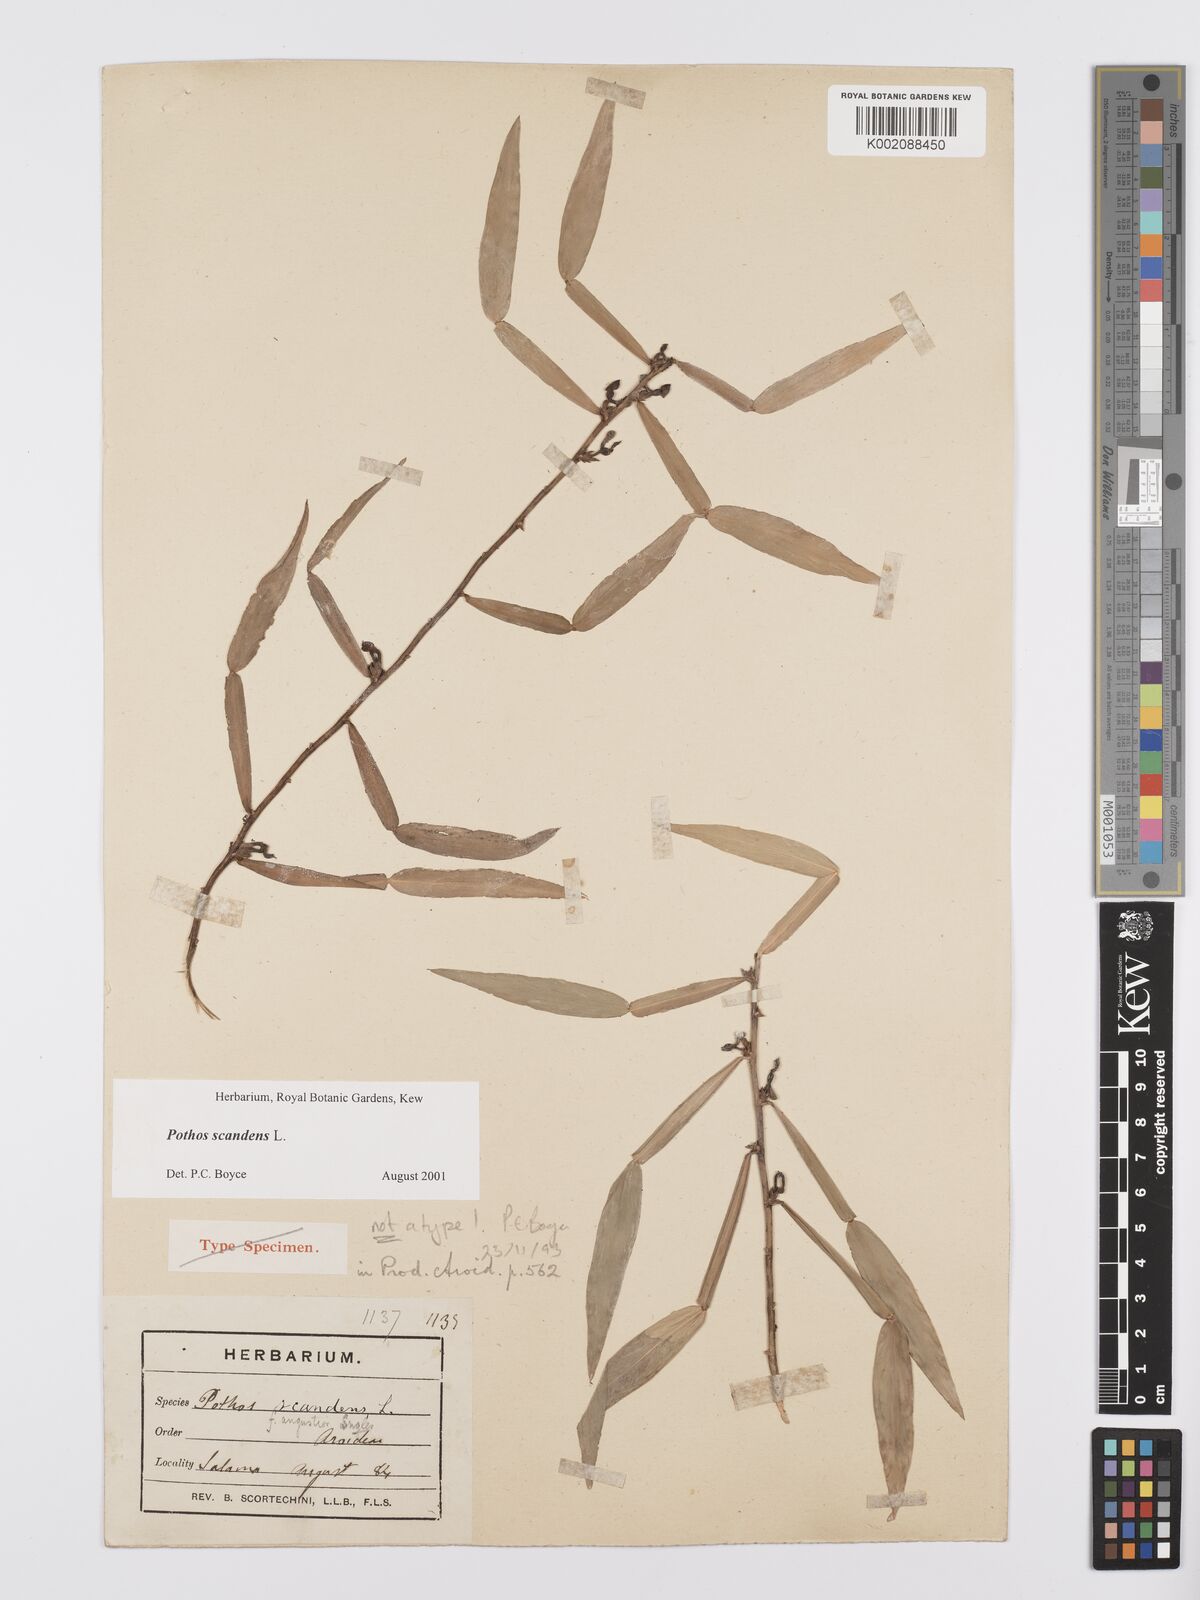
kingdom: Plantae
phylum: Tracheophyta
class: Liliopsida
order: Alismatales
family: Araceae
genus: Pothos
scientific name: Pothos scandens
